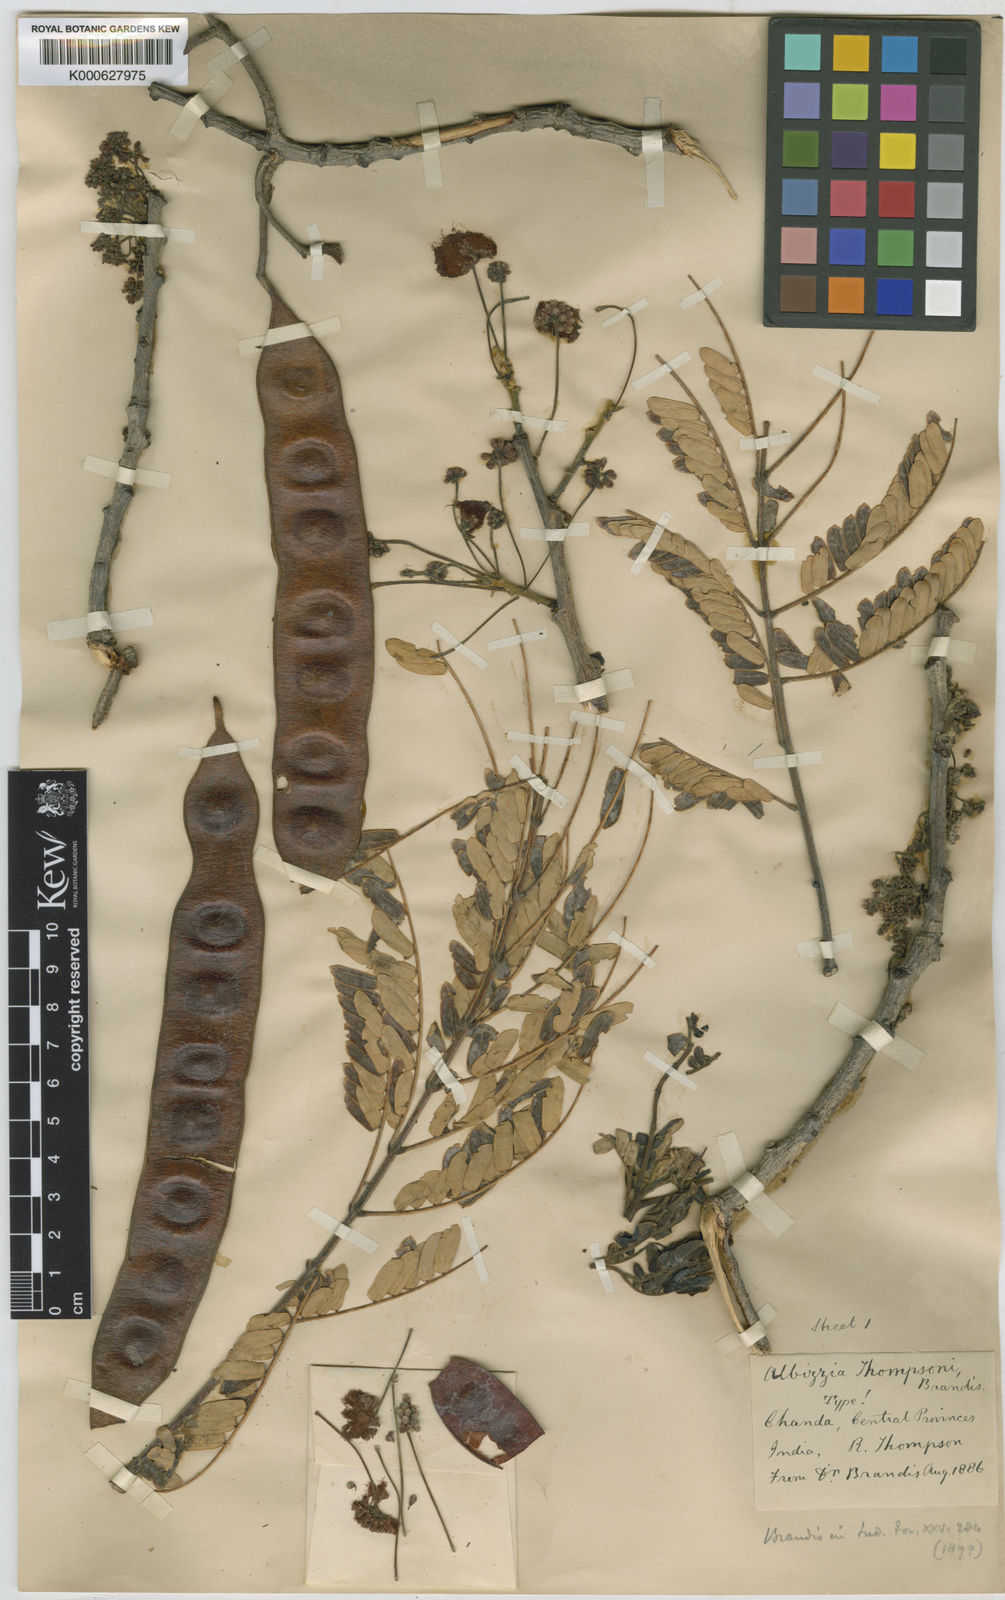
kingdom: Plantae
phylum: Tracheophyta
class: Magnoliopsida
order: Fabales
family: Fabaceae
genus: Albizia
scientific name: Albizia thompsonii
